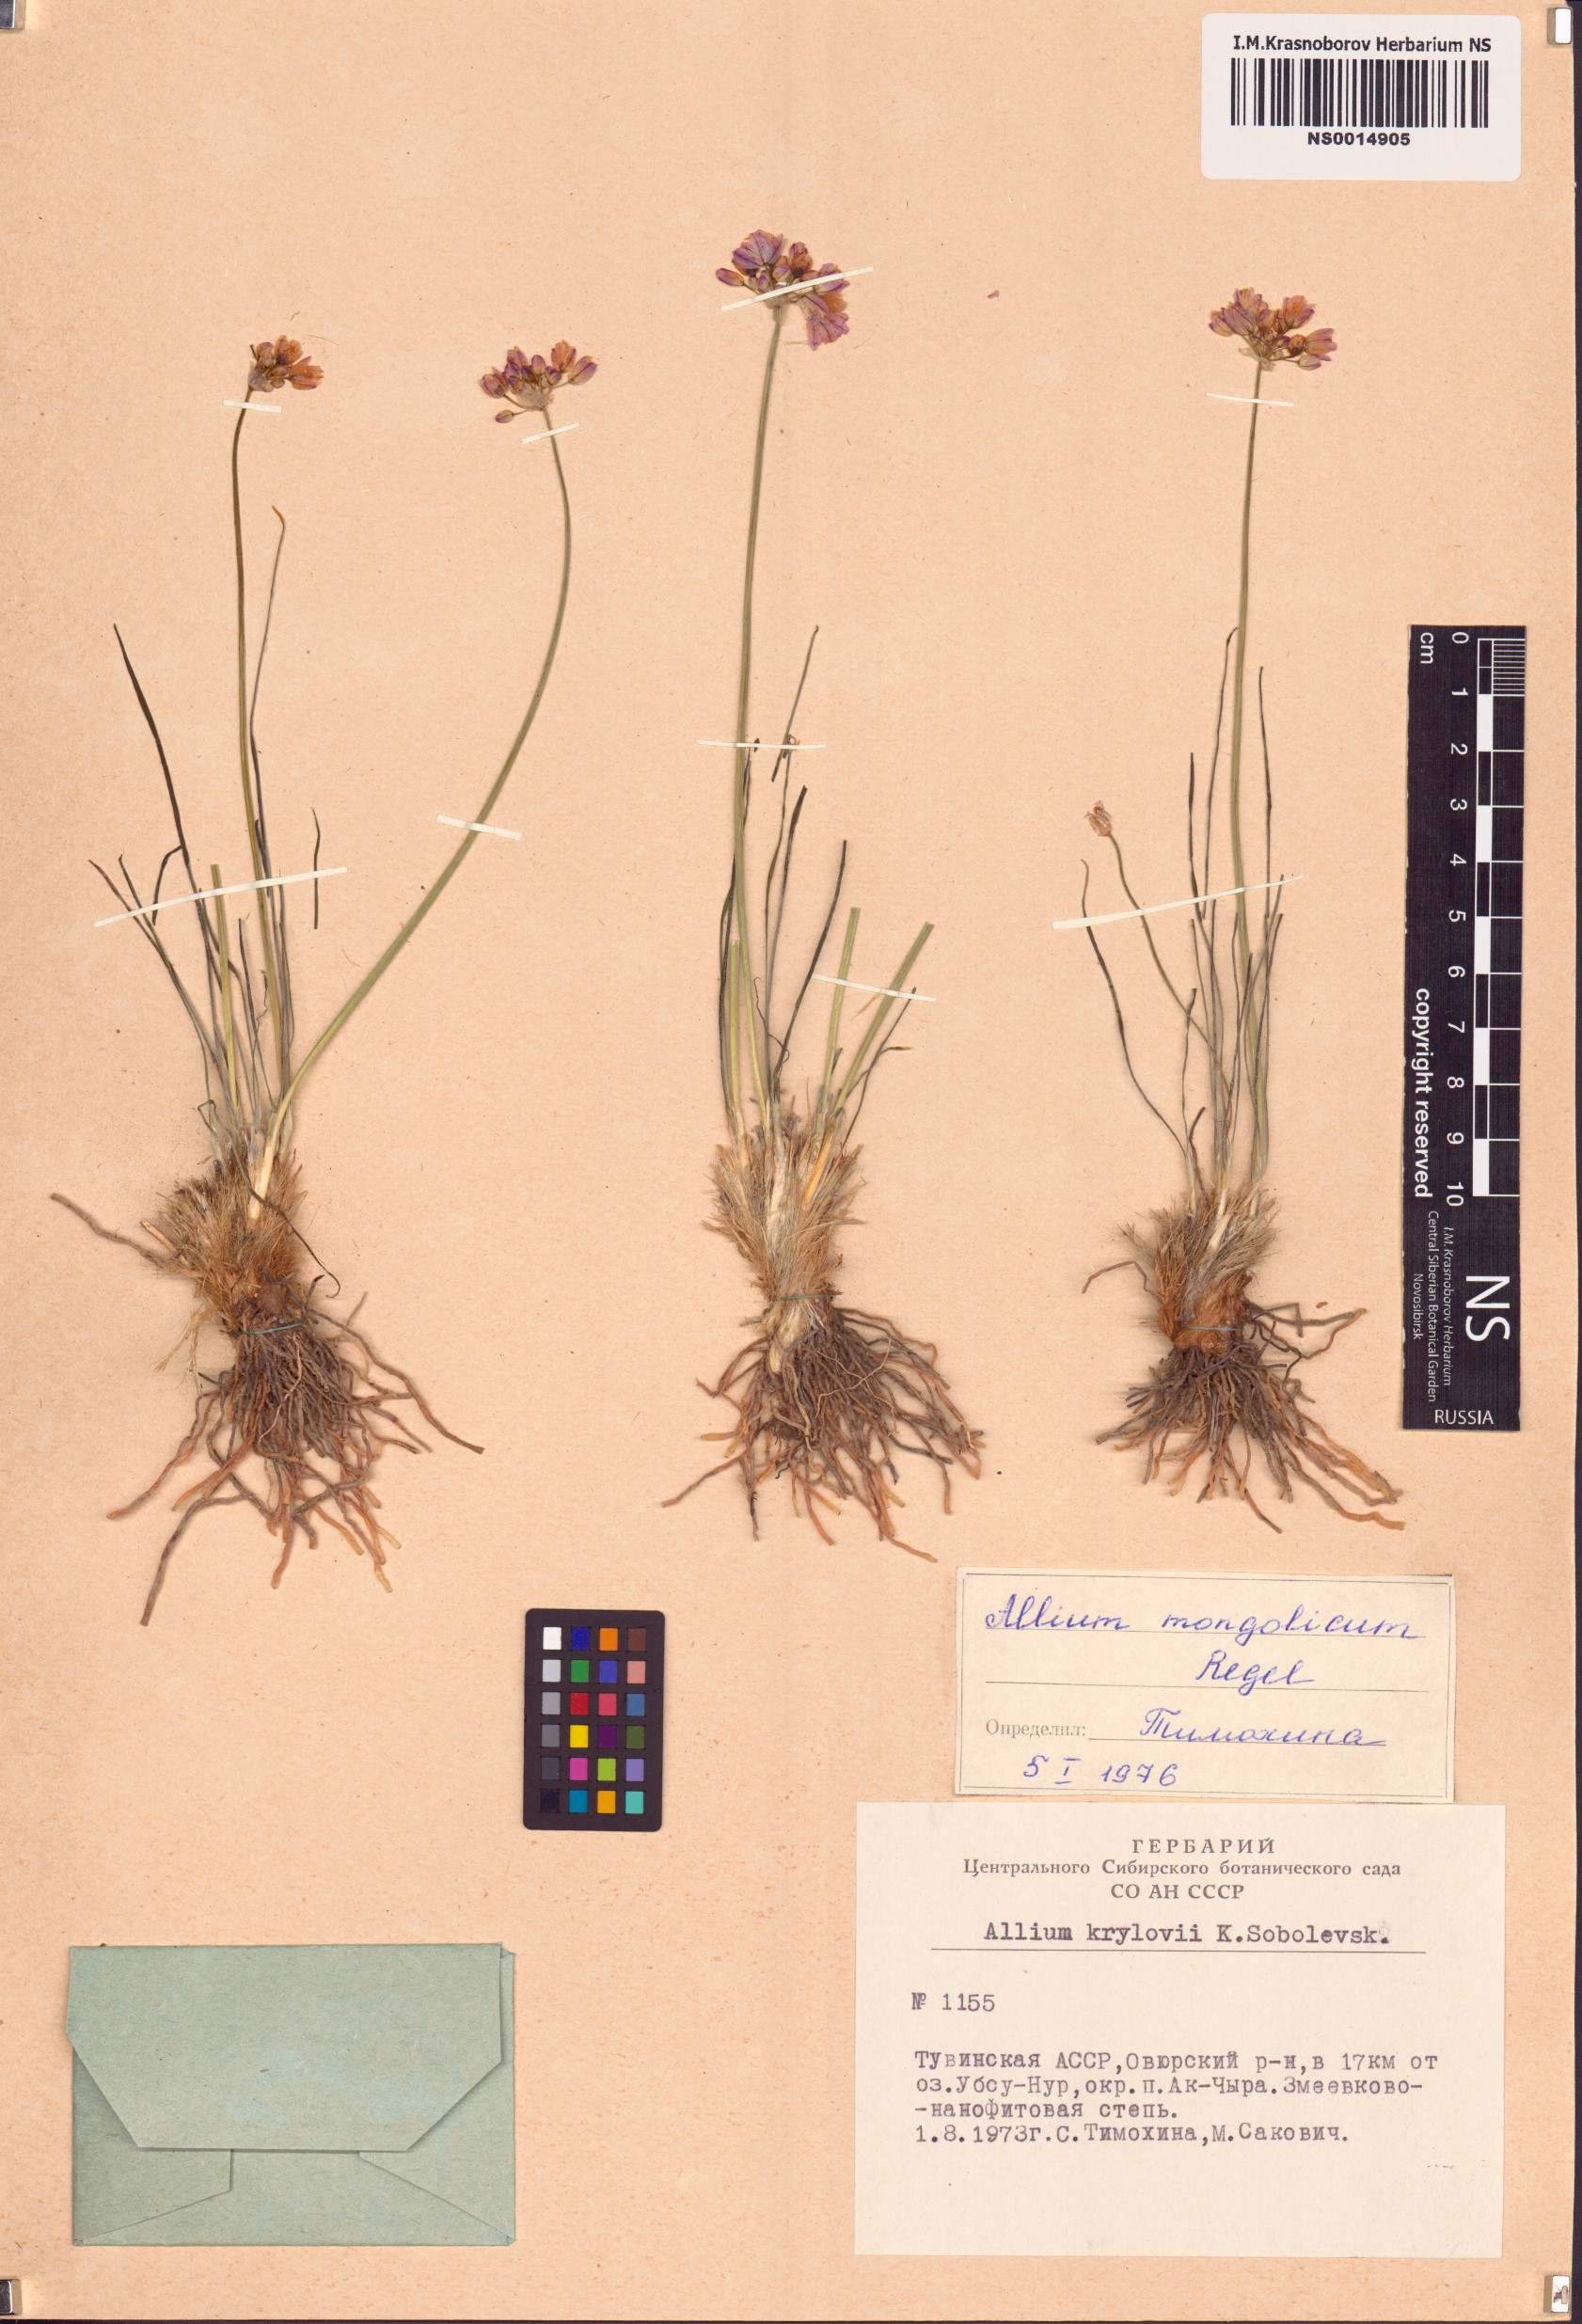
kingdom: Plantae
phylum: Tracheophyta
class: Liliopsida
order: Asparagales
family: Amaryllidaceae
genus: Allium
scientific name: Allium mongolicum
